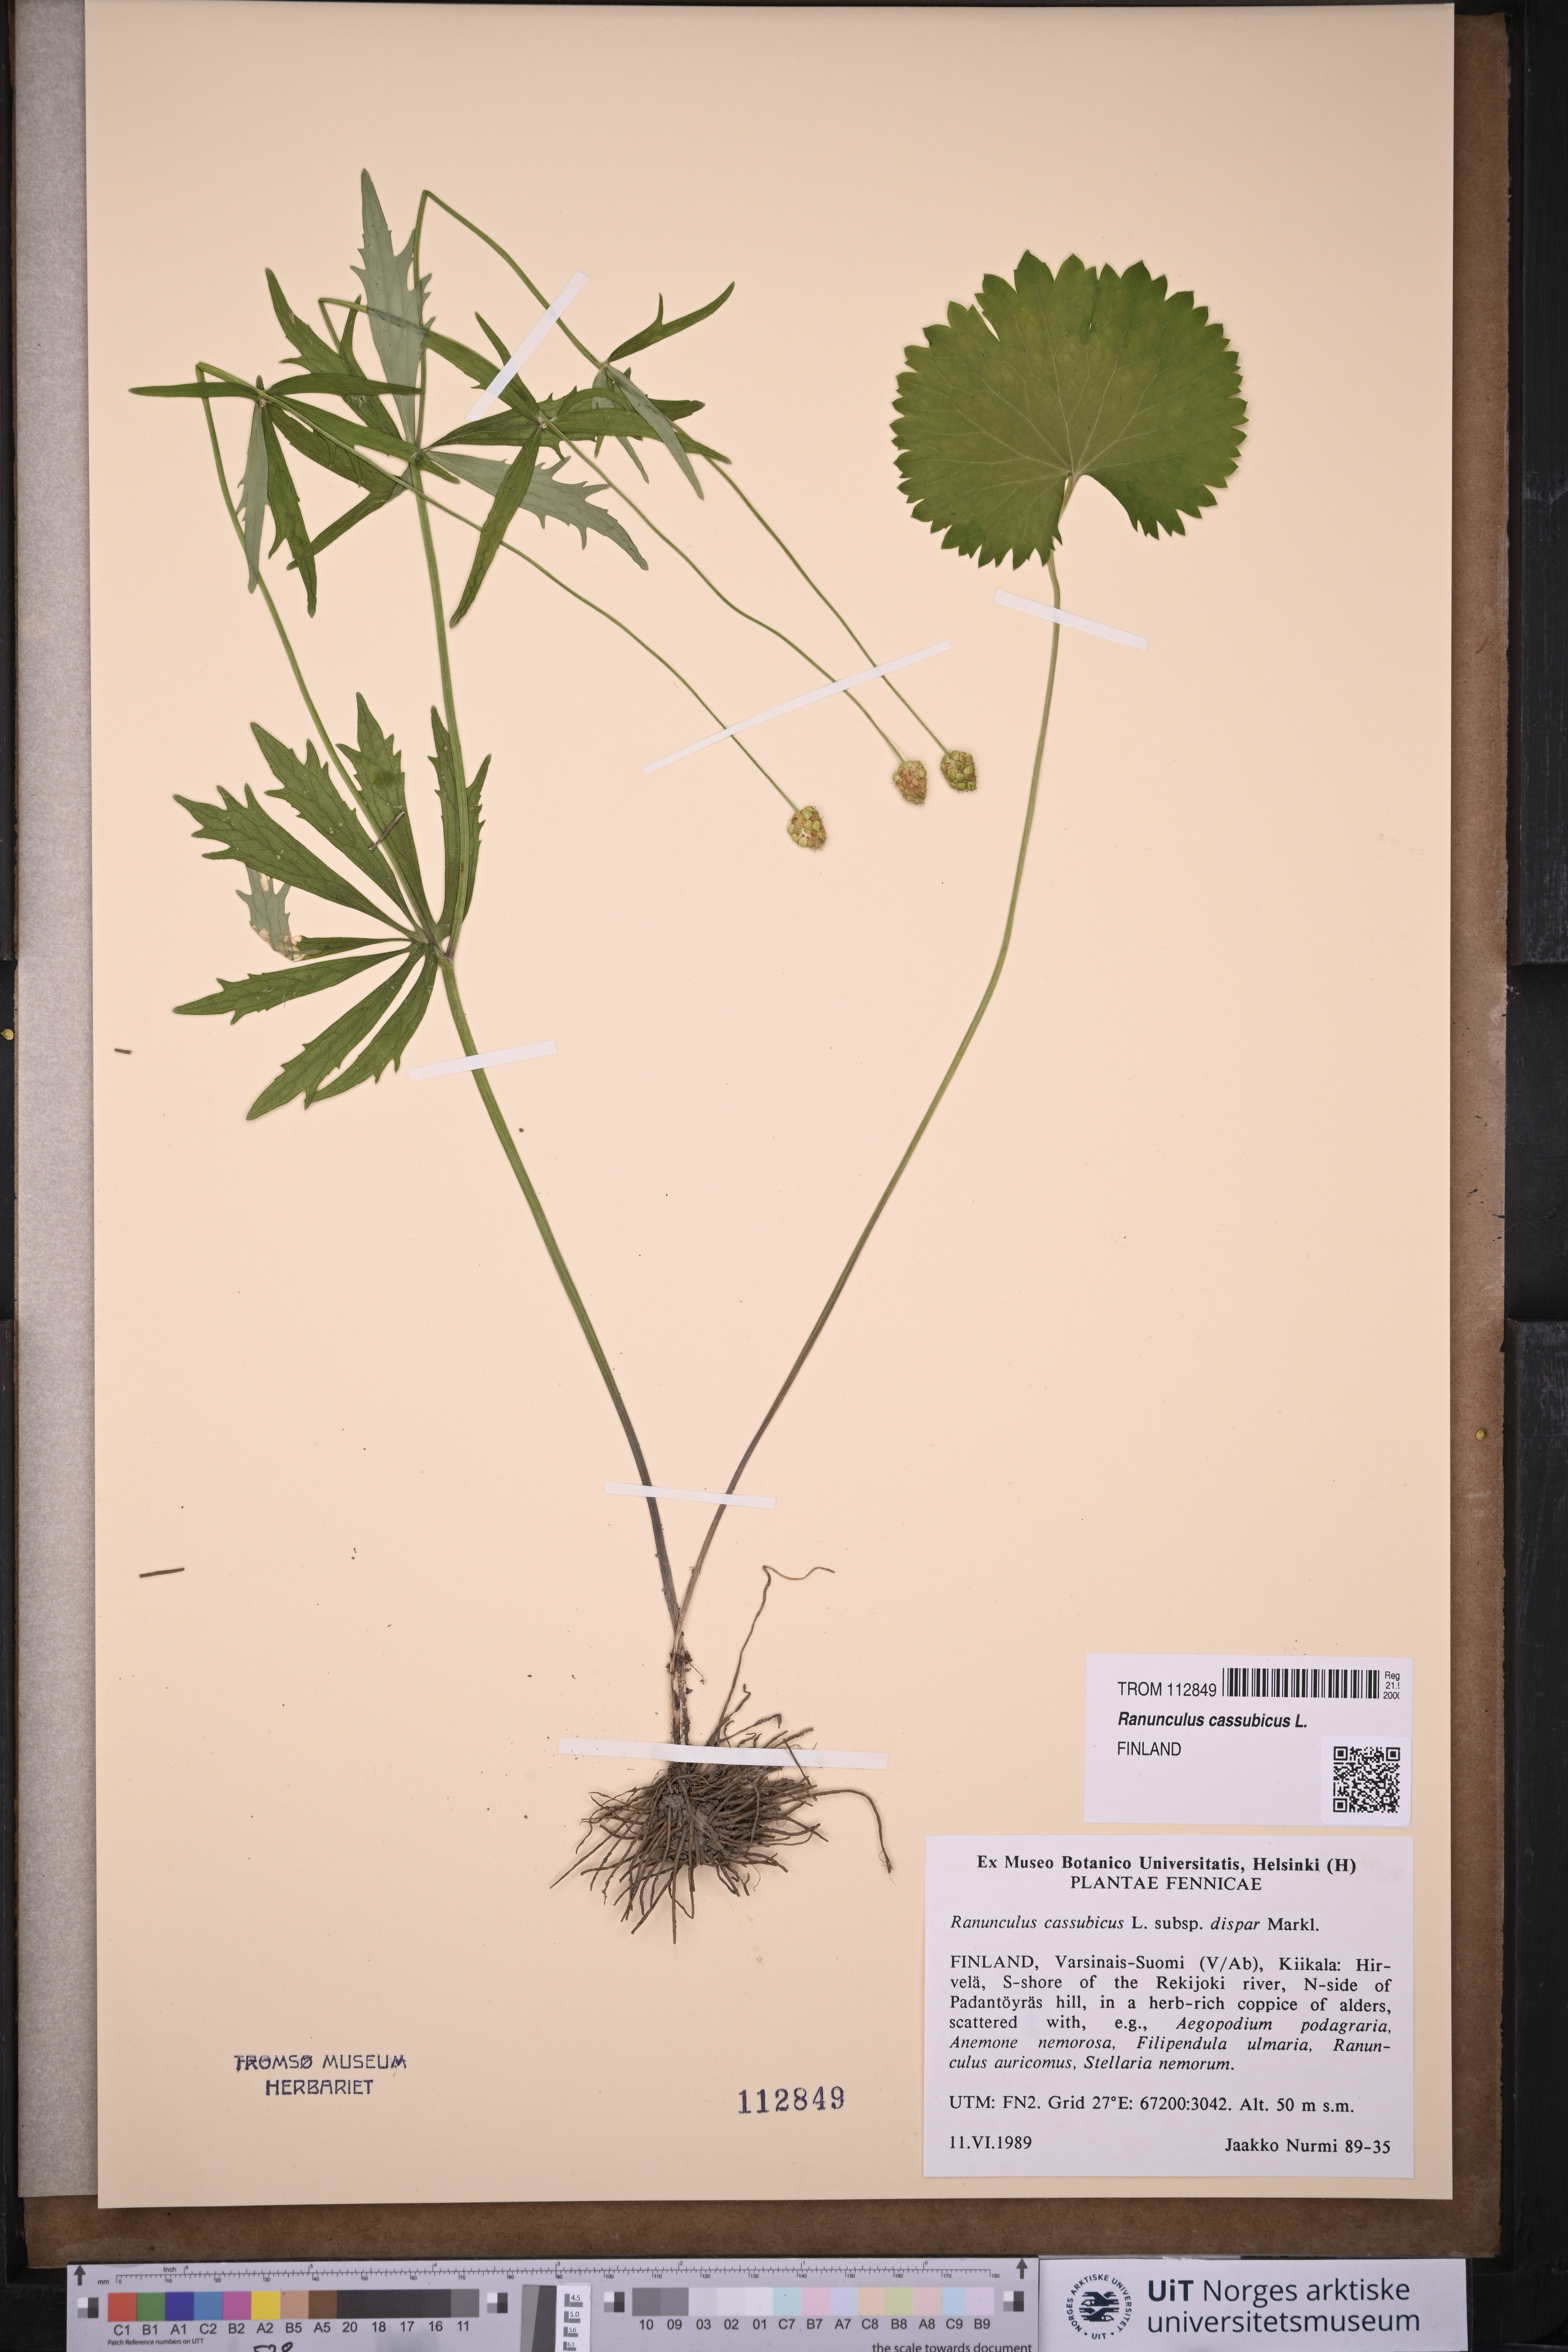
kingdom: Plantae
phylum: Tracheophyta
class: Magnoliopsida
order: Ranunculales
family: Ranunculaceae
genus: Ranunculus
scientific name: Ranunculus cassubicus
